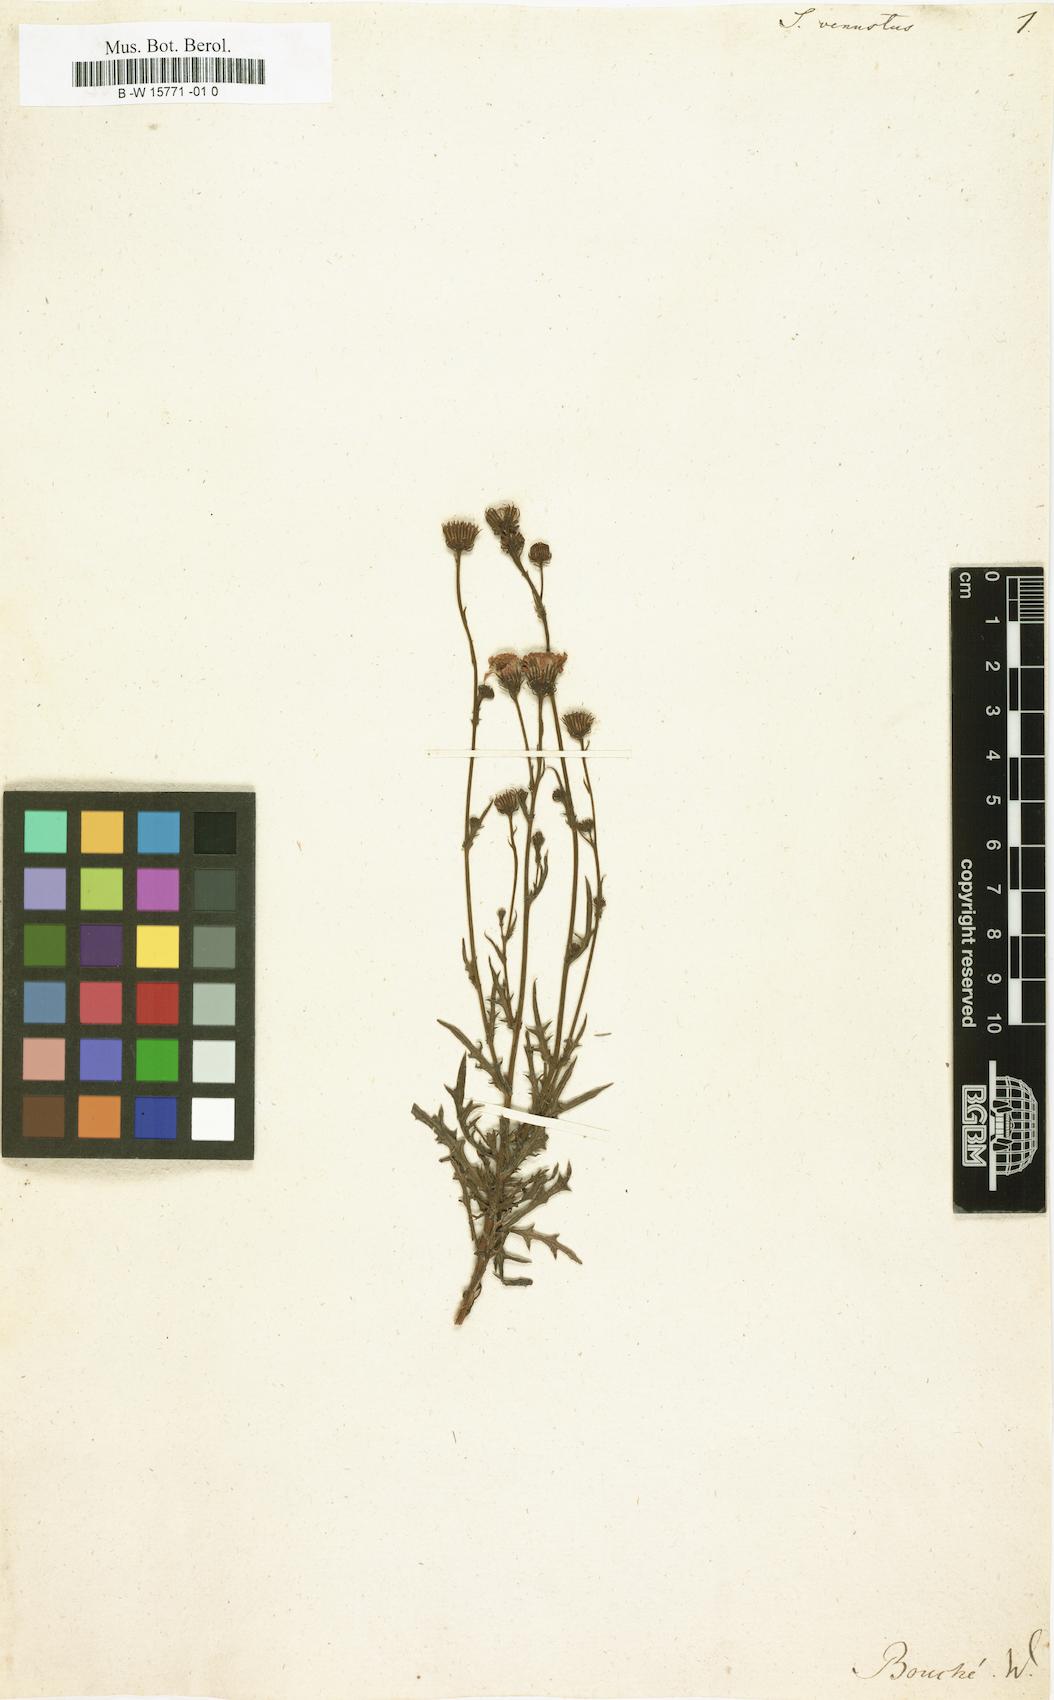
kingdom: Plantae
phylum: Tracheophyta
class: Magnoliopsida
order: Asterales
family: Asteraceae
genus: Senecio
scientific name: Senecio grandiflorus
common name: Purple ragwort
